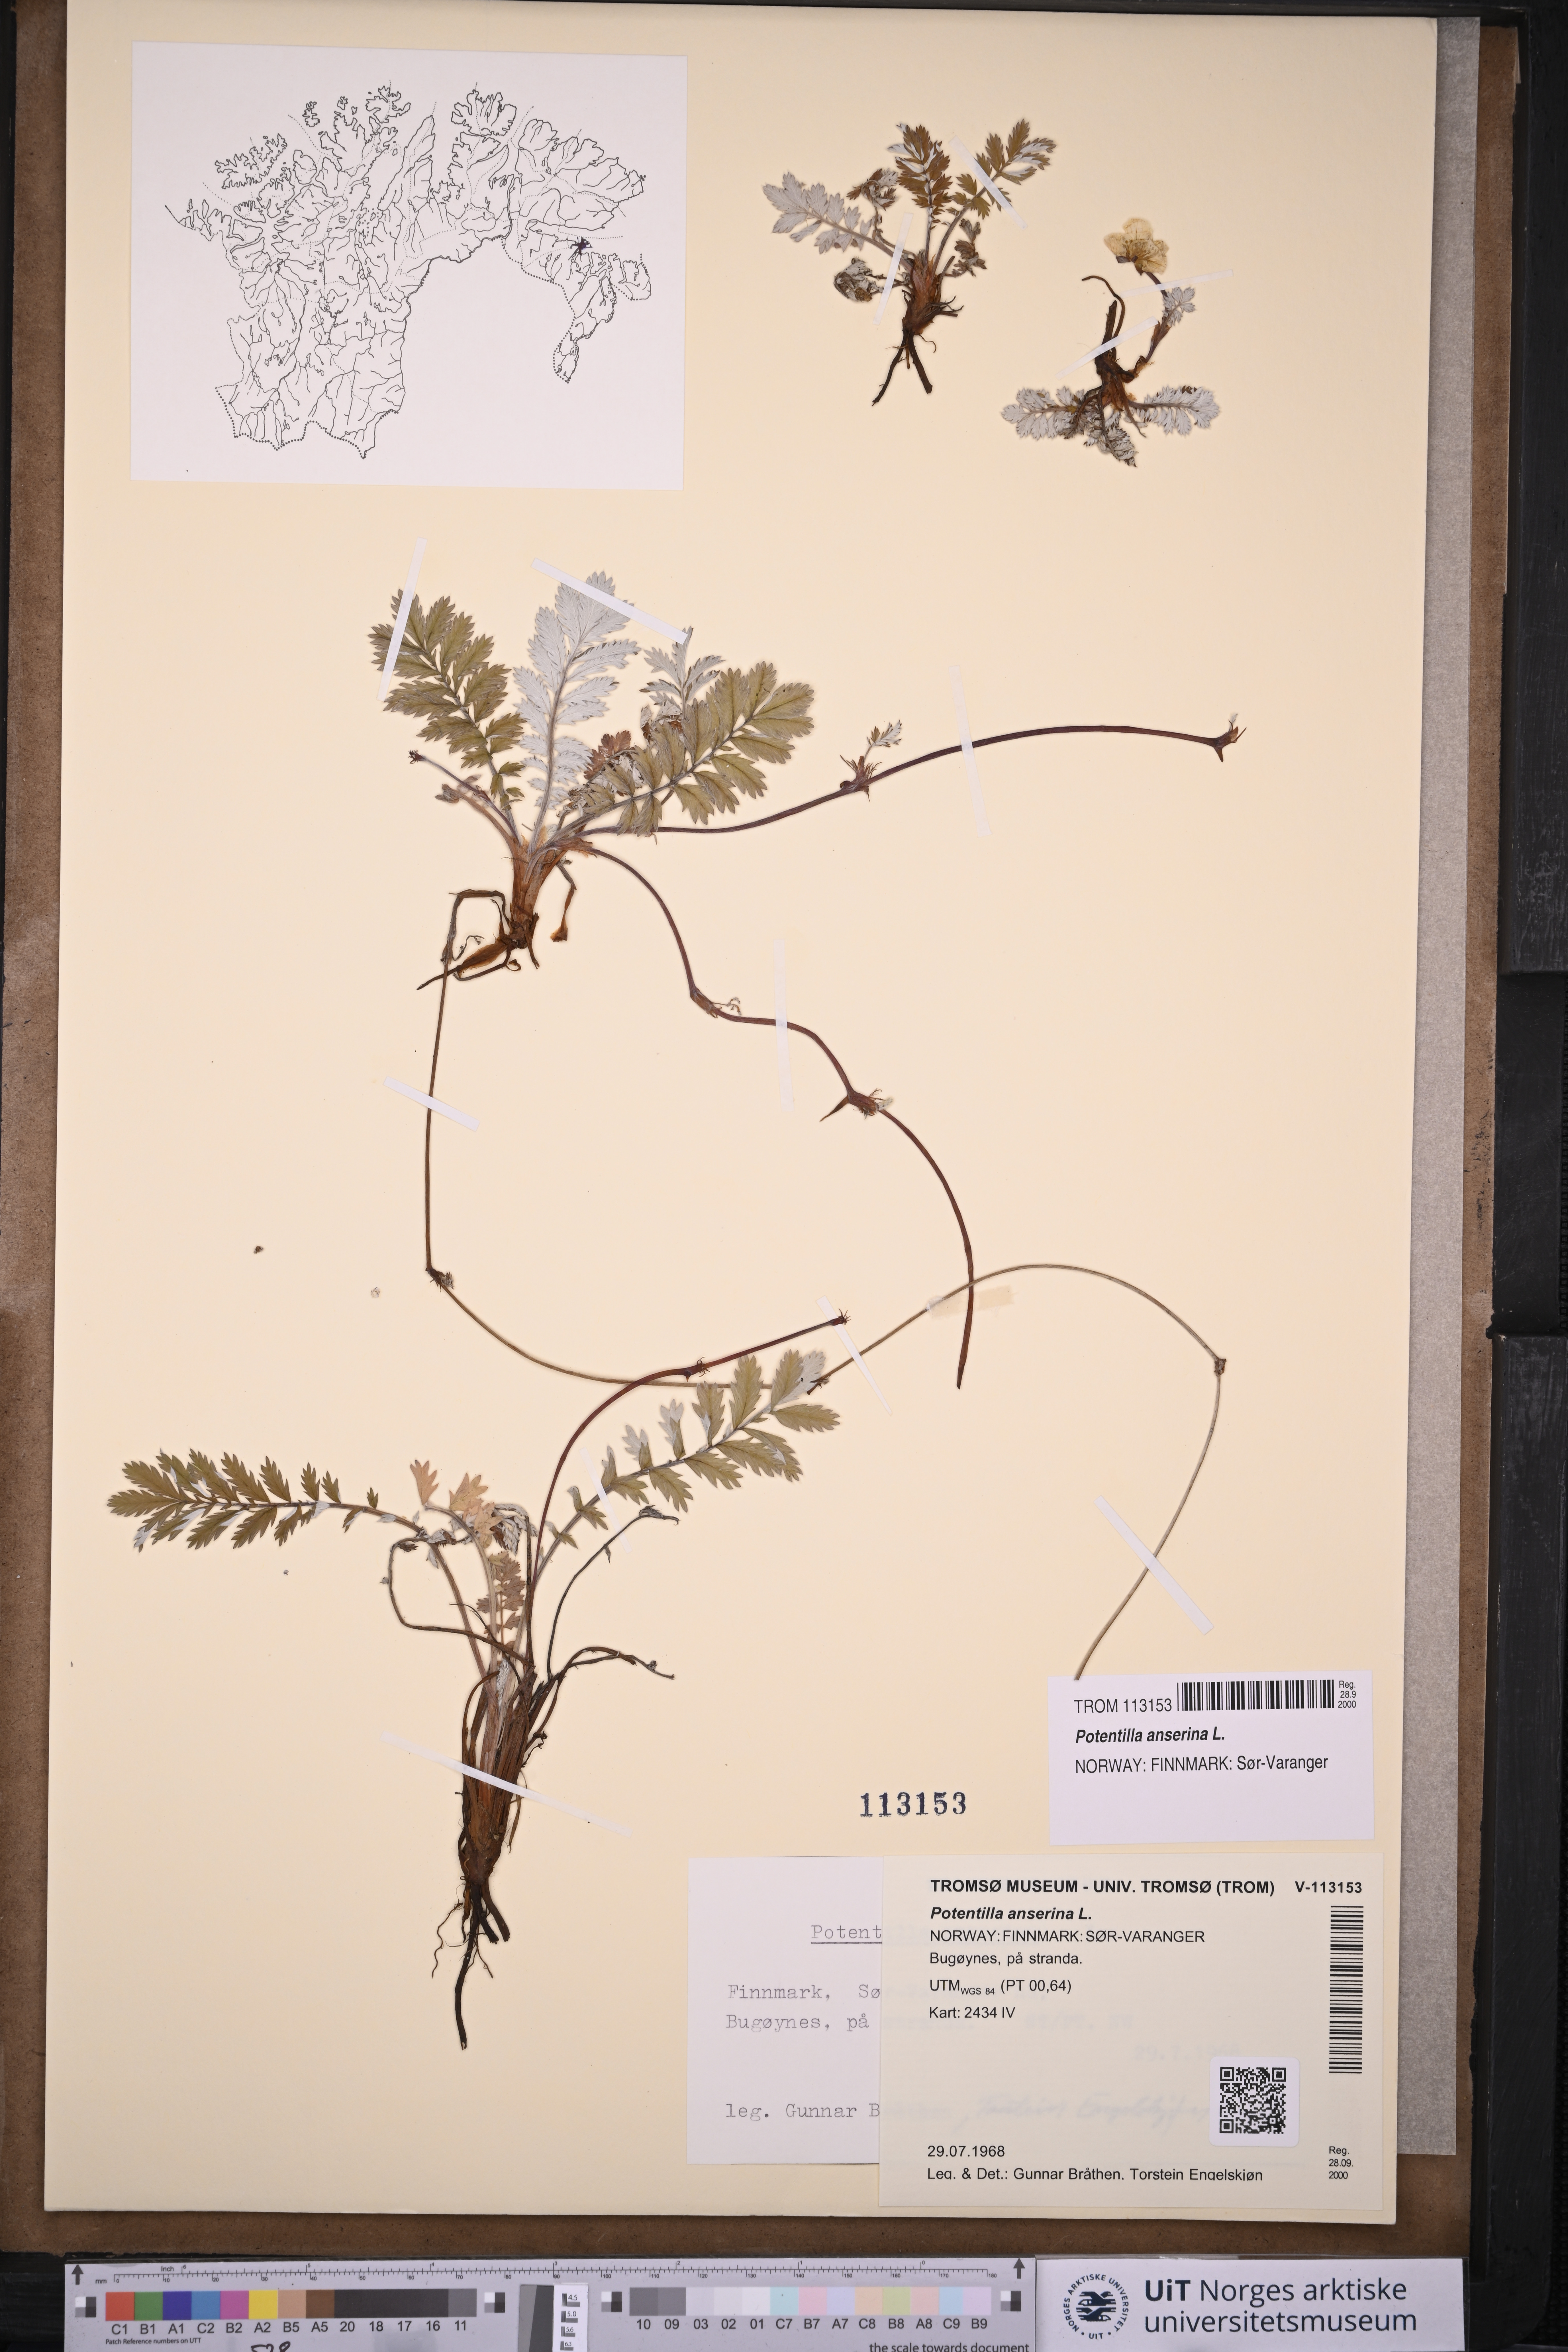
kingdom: Plantae
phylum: Tracheophyta
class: Magnoliopsida
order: Rosales
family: Rosaceae
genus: Argentina
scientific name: Argentina anserina
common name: Common silverweed
